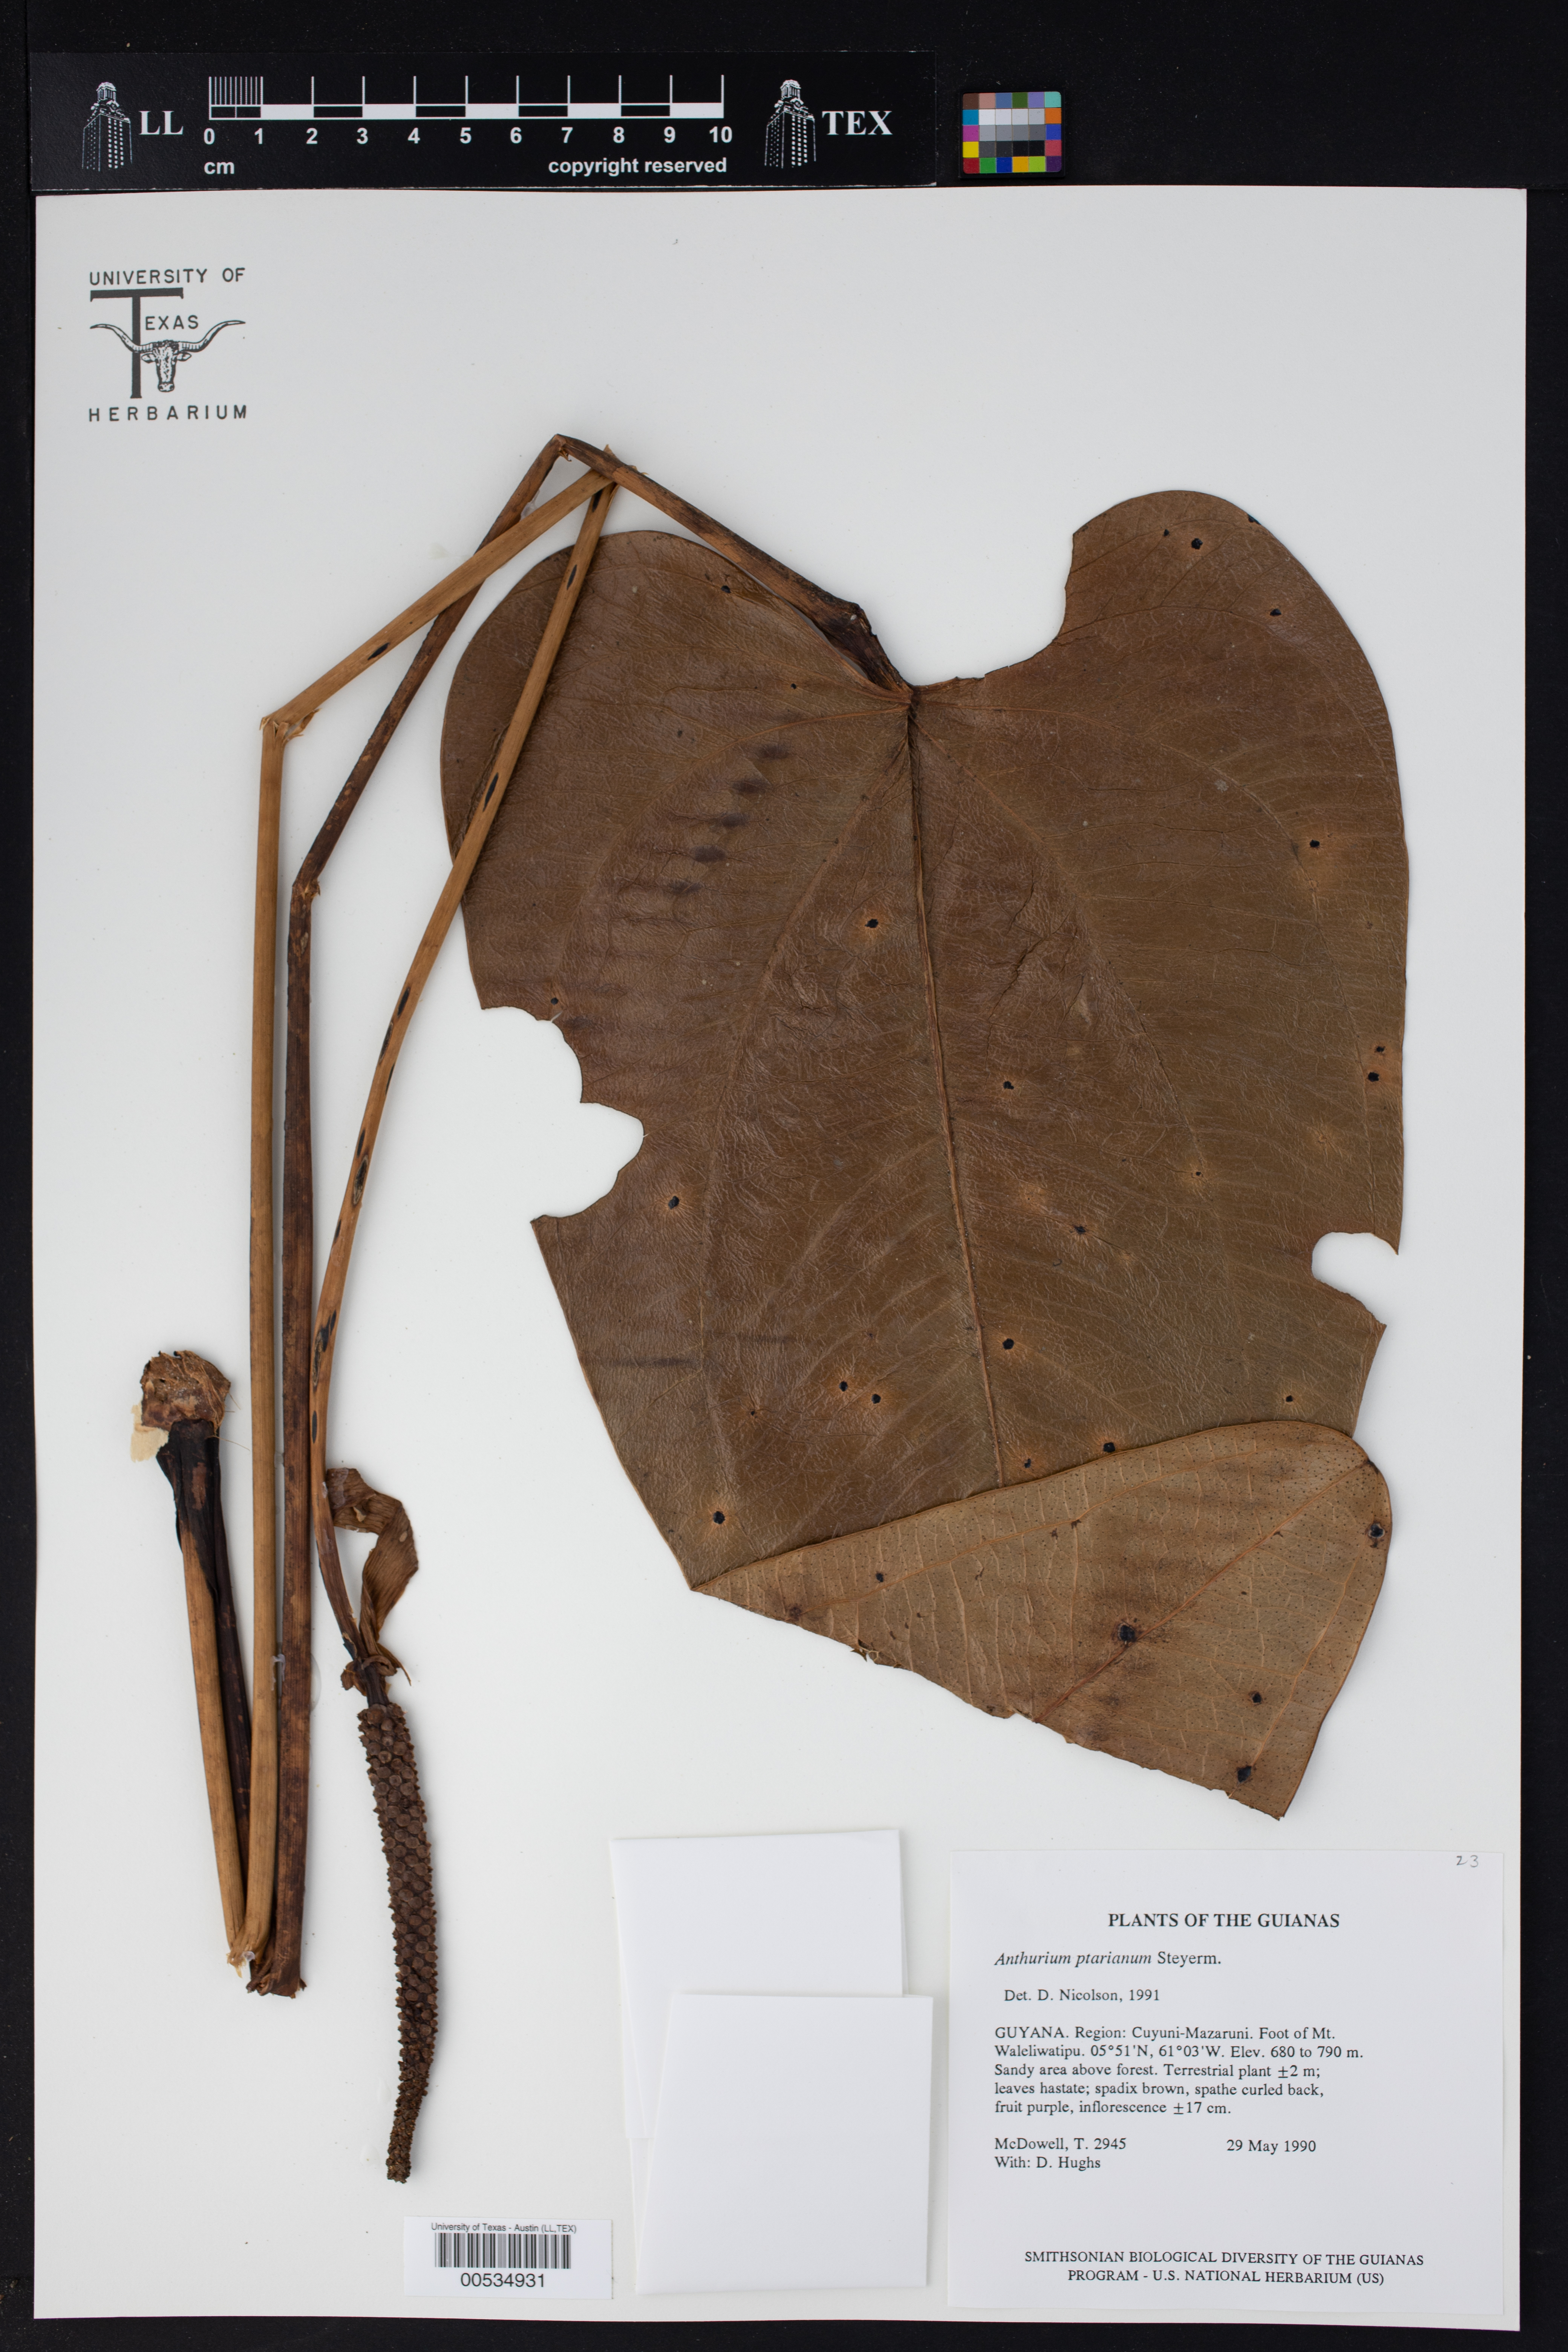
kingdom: Plantae
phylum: Tracheophyta
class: Liliopsida
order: Alismatales
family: Araceae
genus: Anthurium
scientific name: Anthurium ptarianum
